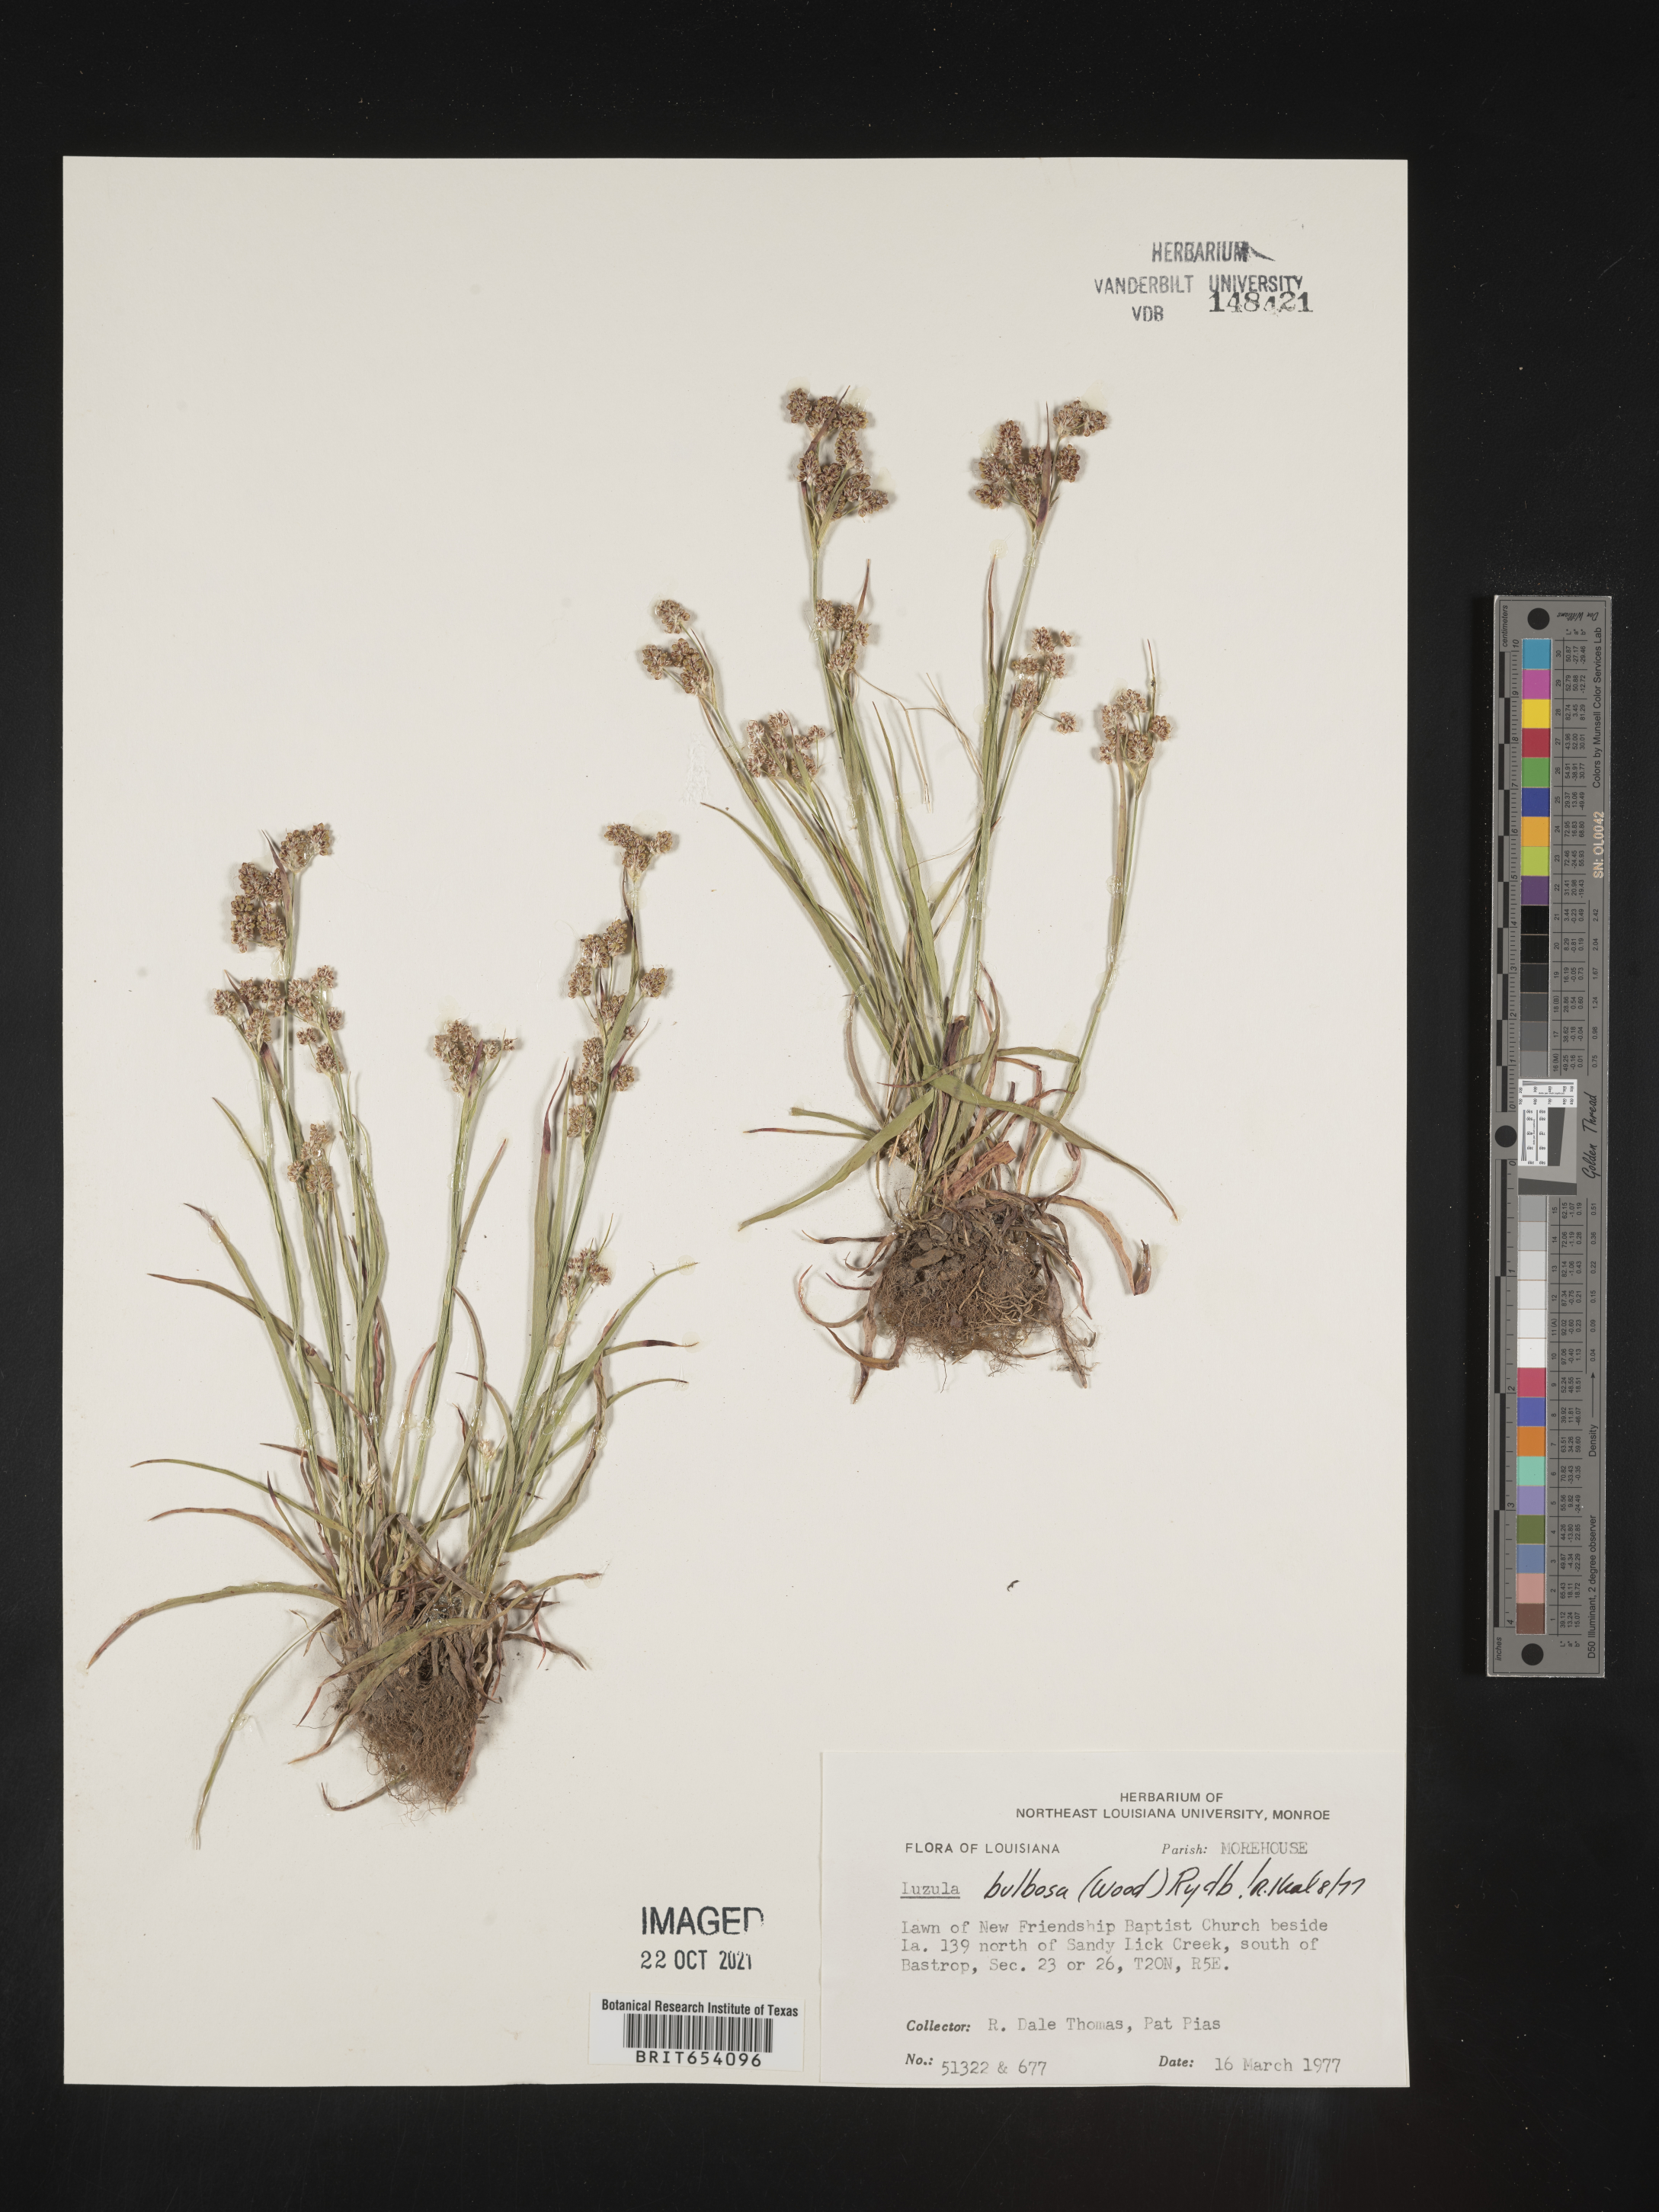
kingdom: Plantae
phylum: Tracheophyta
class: Liliopsida
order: Poales
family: Juncaceae
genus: Luzula
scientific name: Luzula bulbosa
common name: Bulbous woodrush
